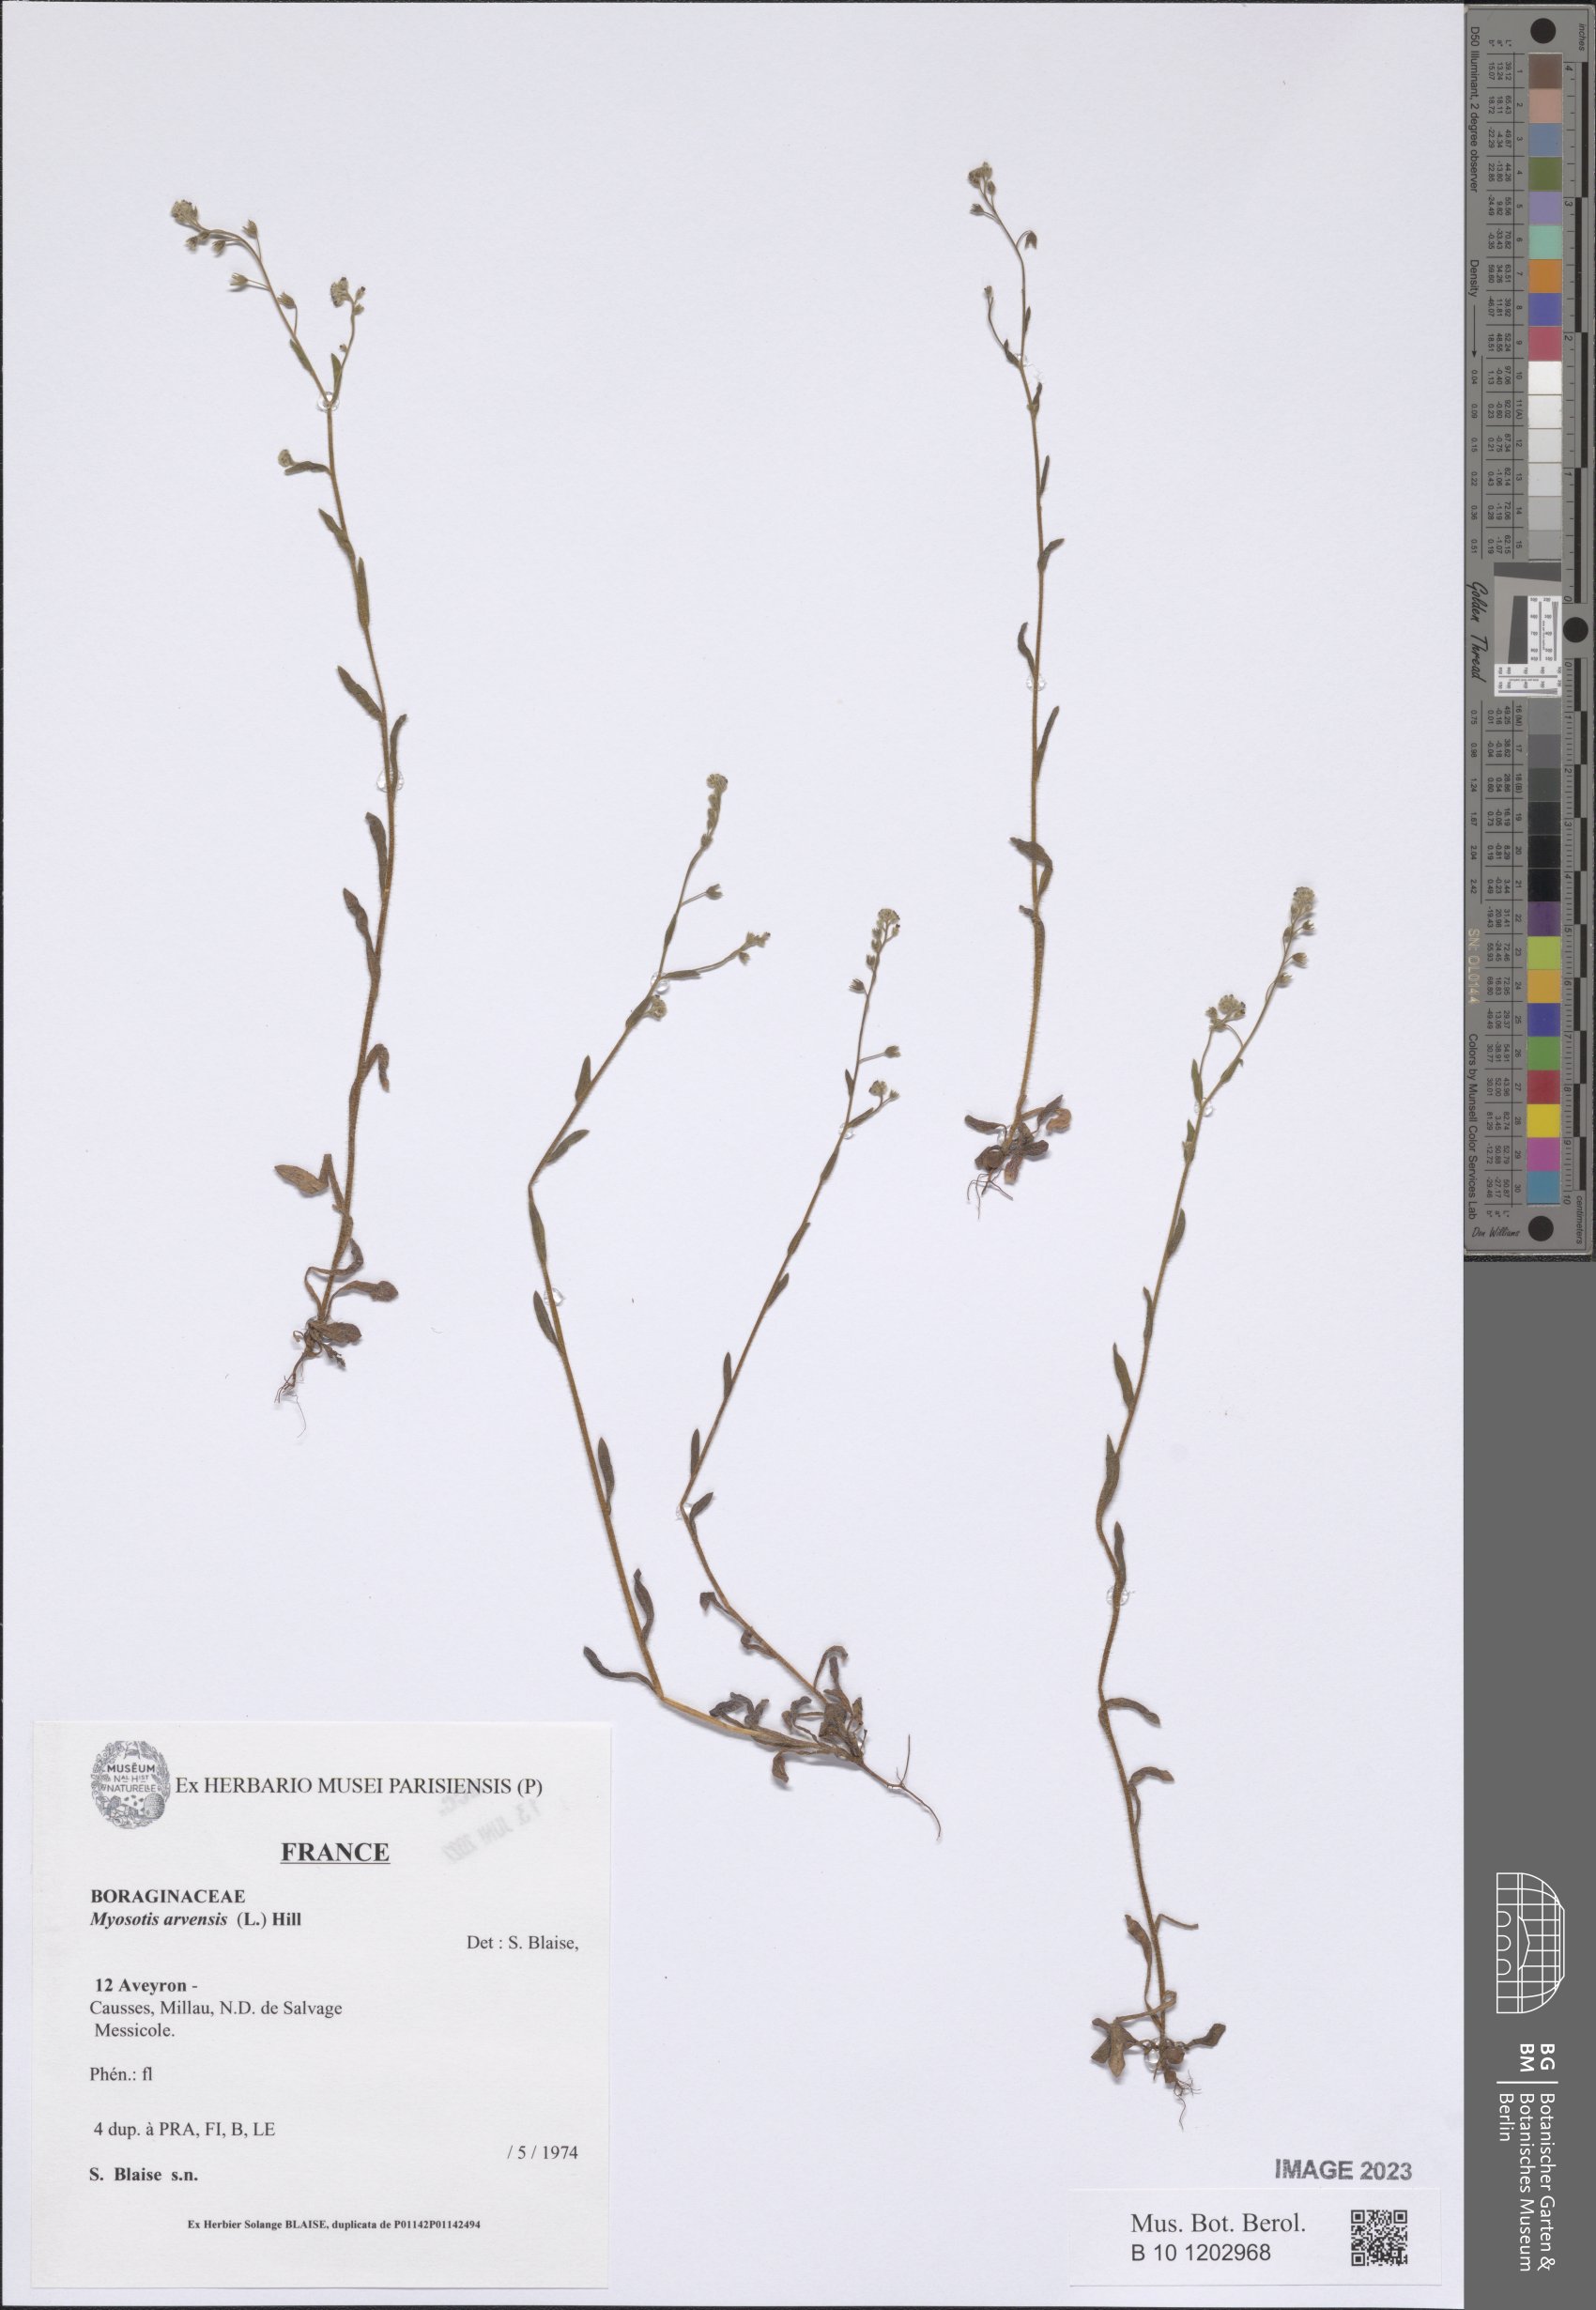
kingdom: Plantae
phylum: Tracheophyta
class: Magnoliopsida
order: Boraginales
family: Boraginaceae
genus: Myosotis
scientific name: Myosotis arvensis
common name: Field forget-me-not
